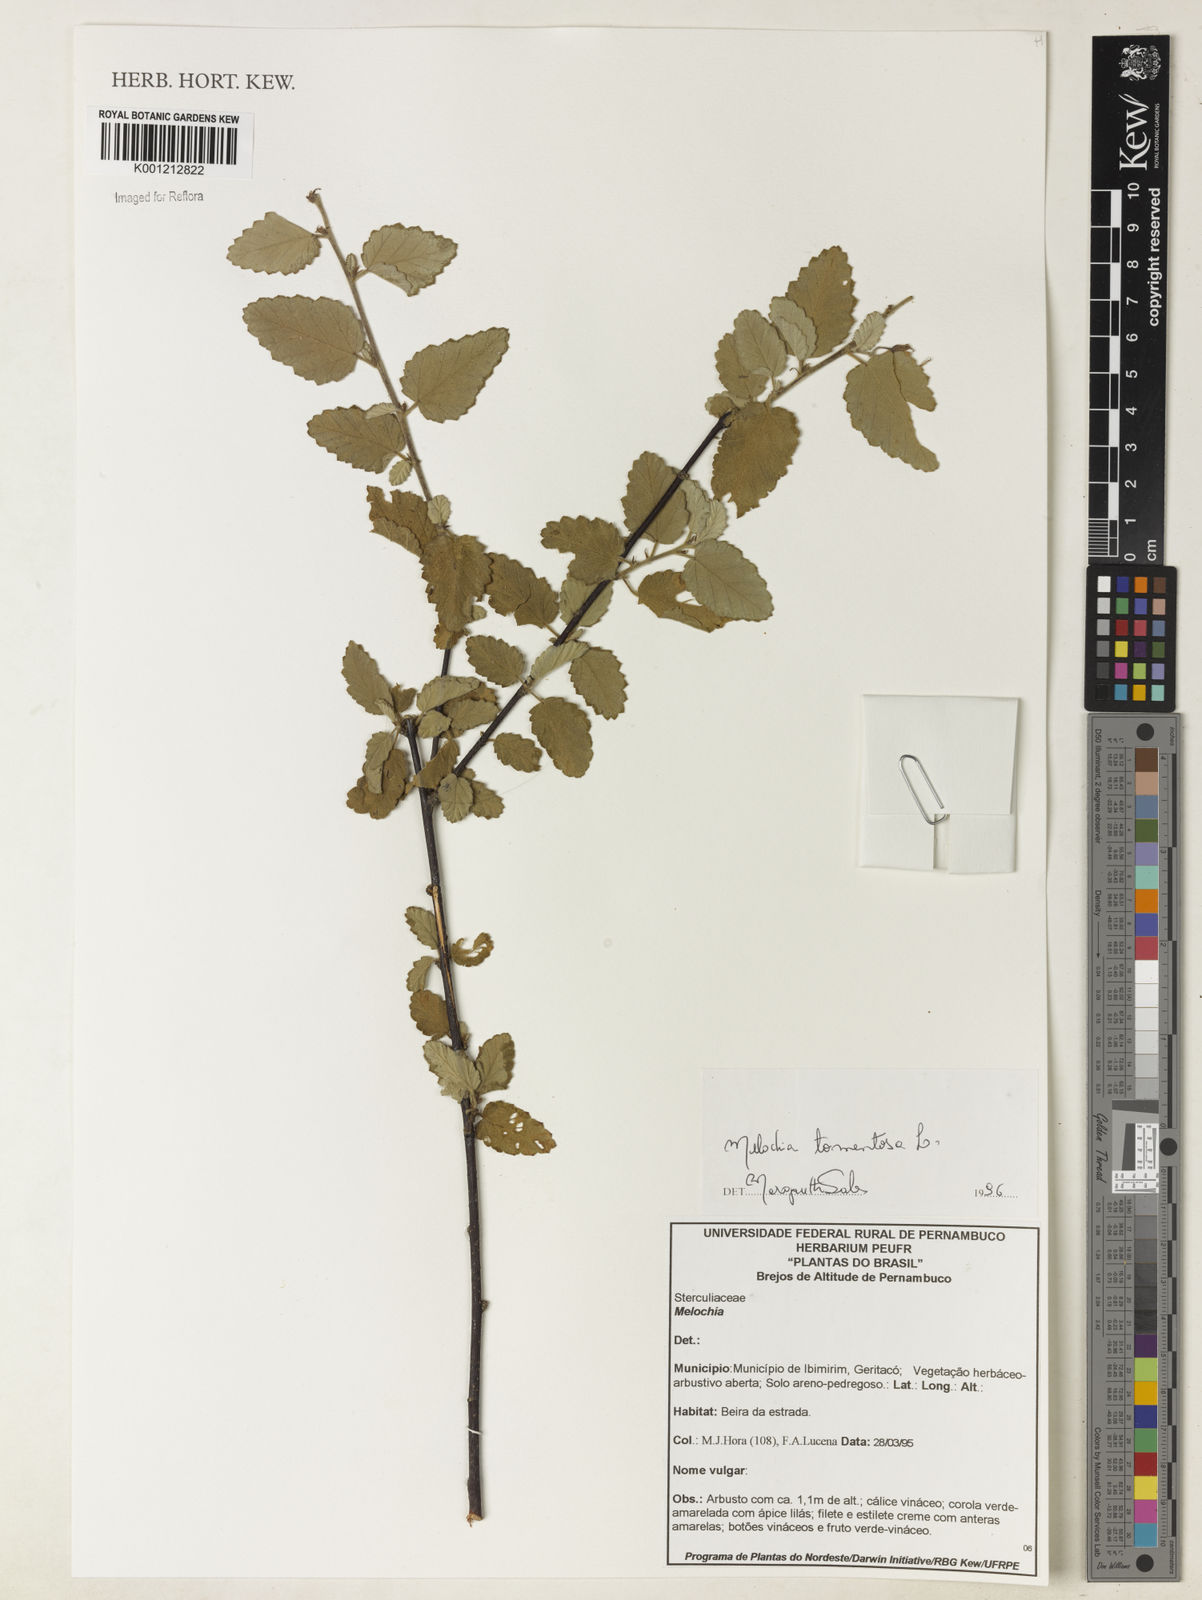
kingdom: Plantae
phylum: Tracheophyta
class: Magnoliopsida
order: Malvales
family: Malvaceae
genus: Melochia
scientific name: Melochia tomentosa
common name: Black torch
